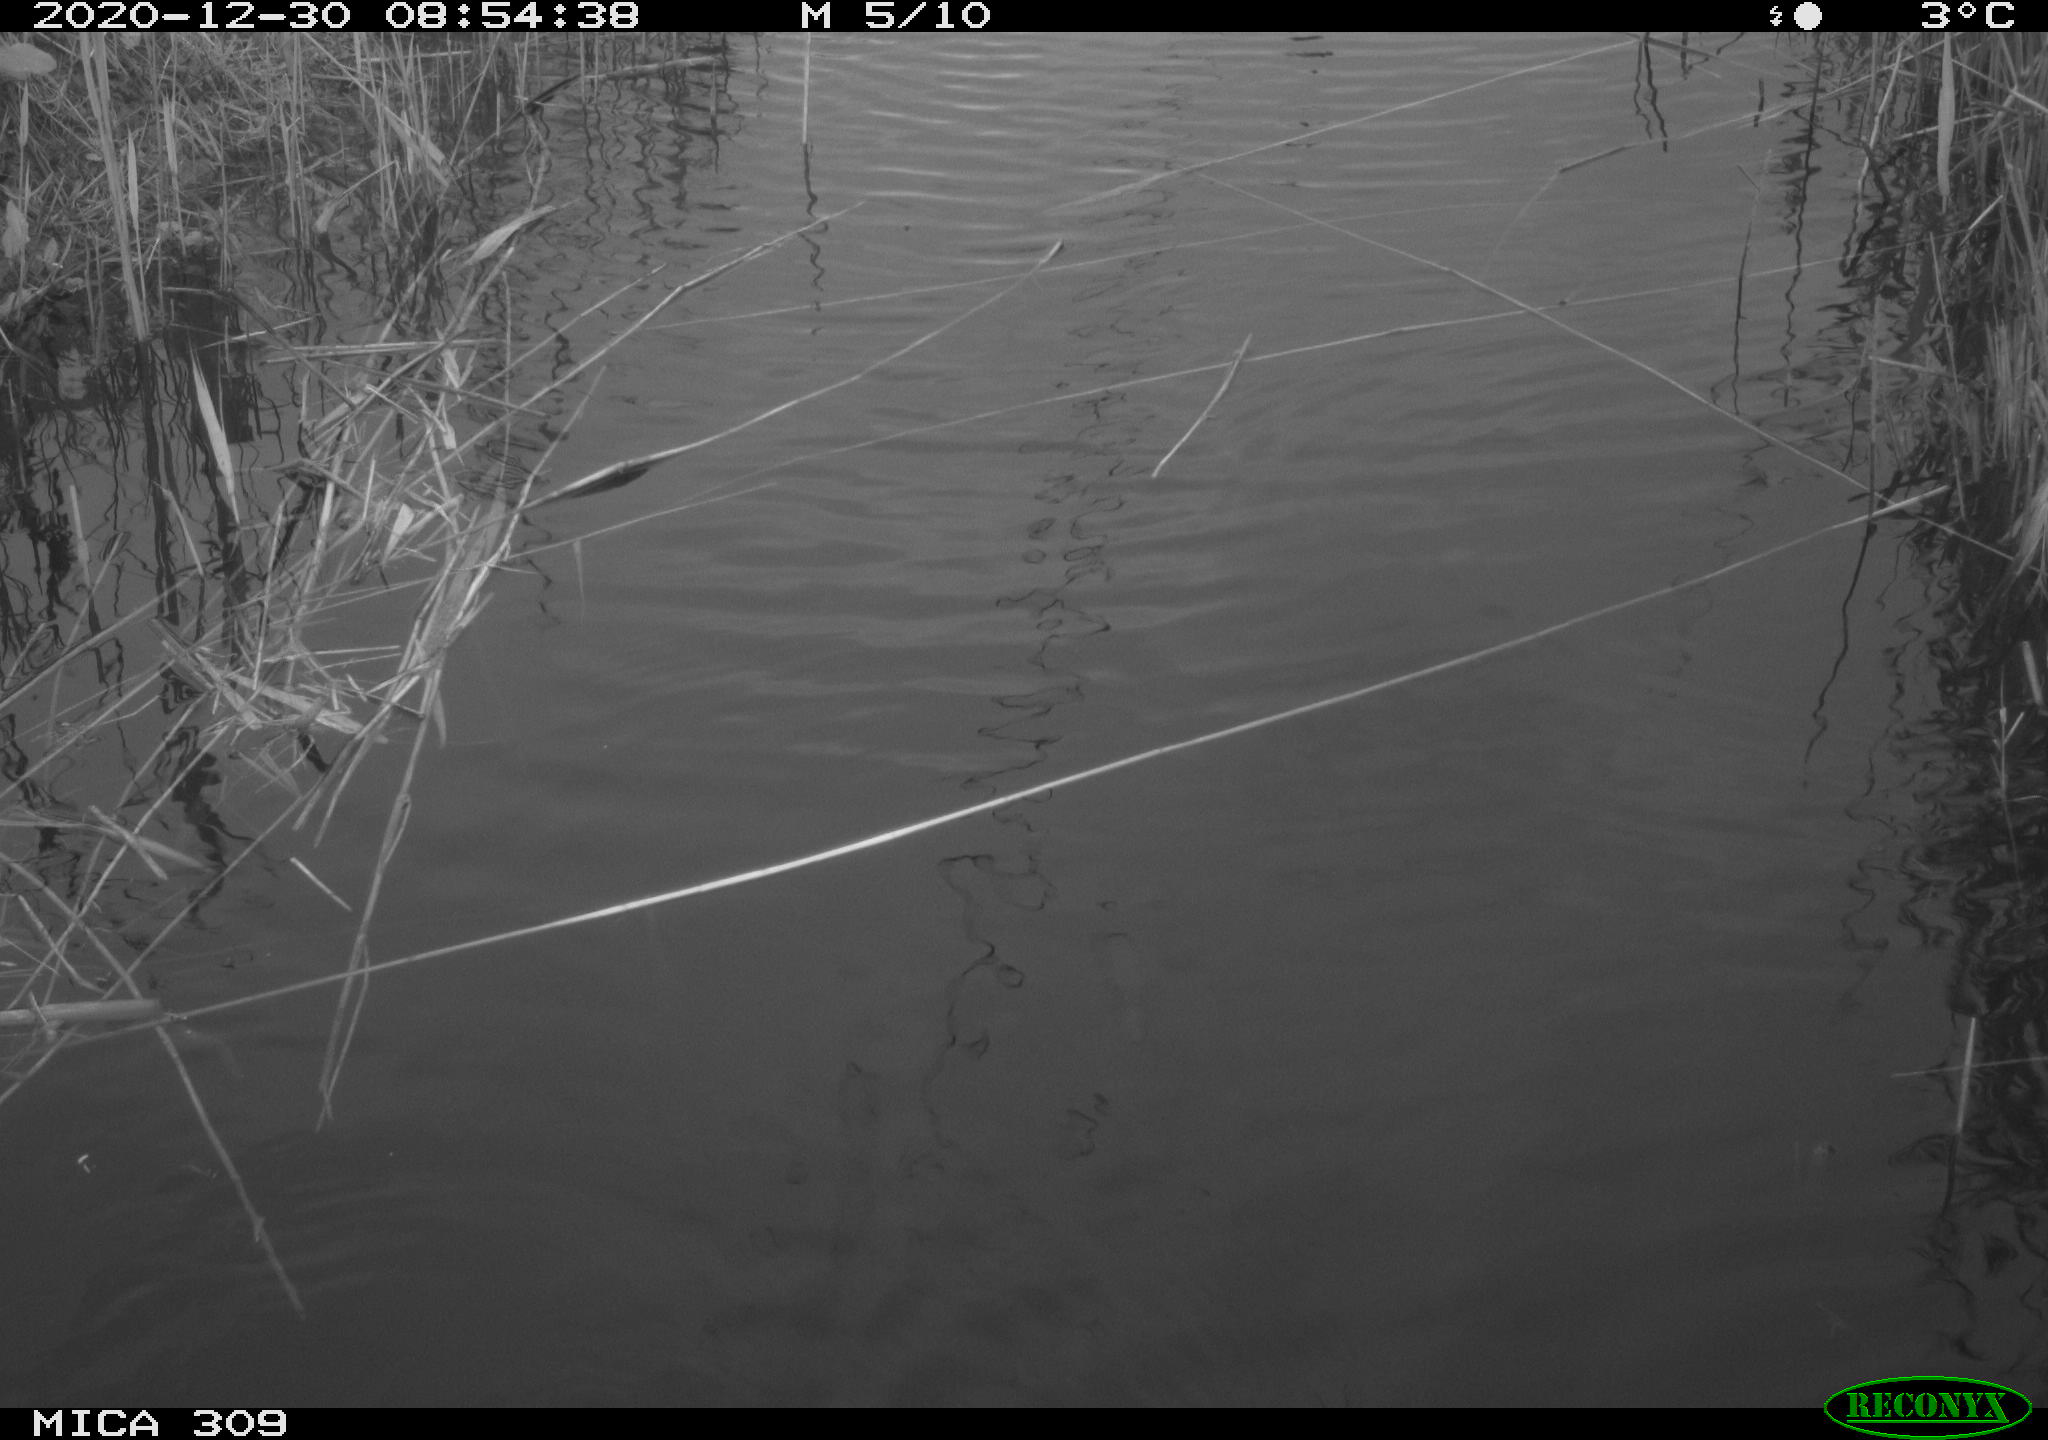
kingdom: Animalia
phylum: Chordata
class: Aves
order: Gruiformes
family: Rallidae
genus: Fulica
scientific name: Fulica atra
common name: Eurasian coot
